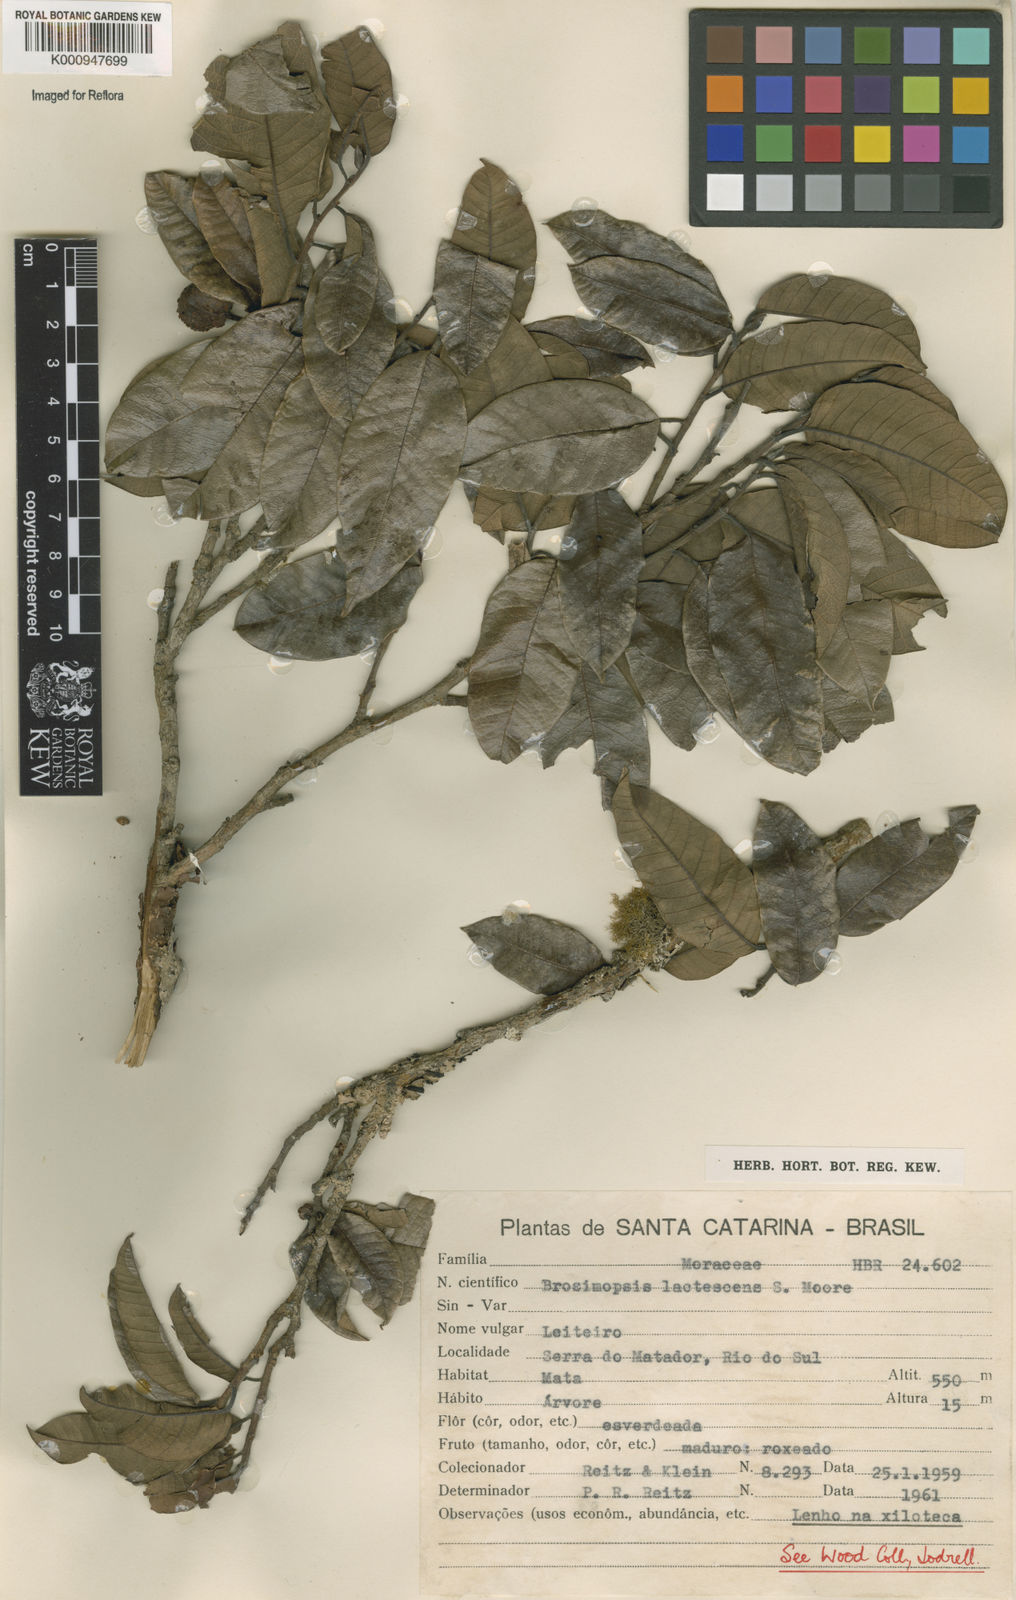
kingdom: Plantae
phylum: Tracheophyta
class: Magnoliopsida
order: Rosales
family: Moraceae
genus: Brosimum
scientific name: Brosimum lactescens
